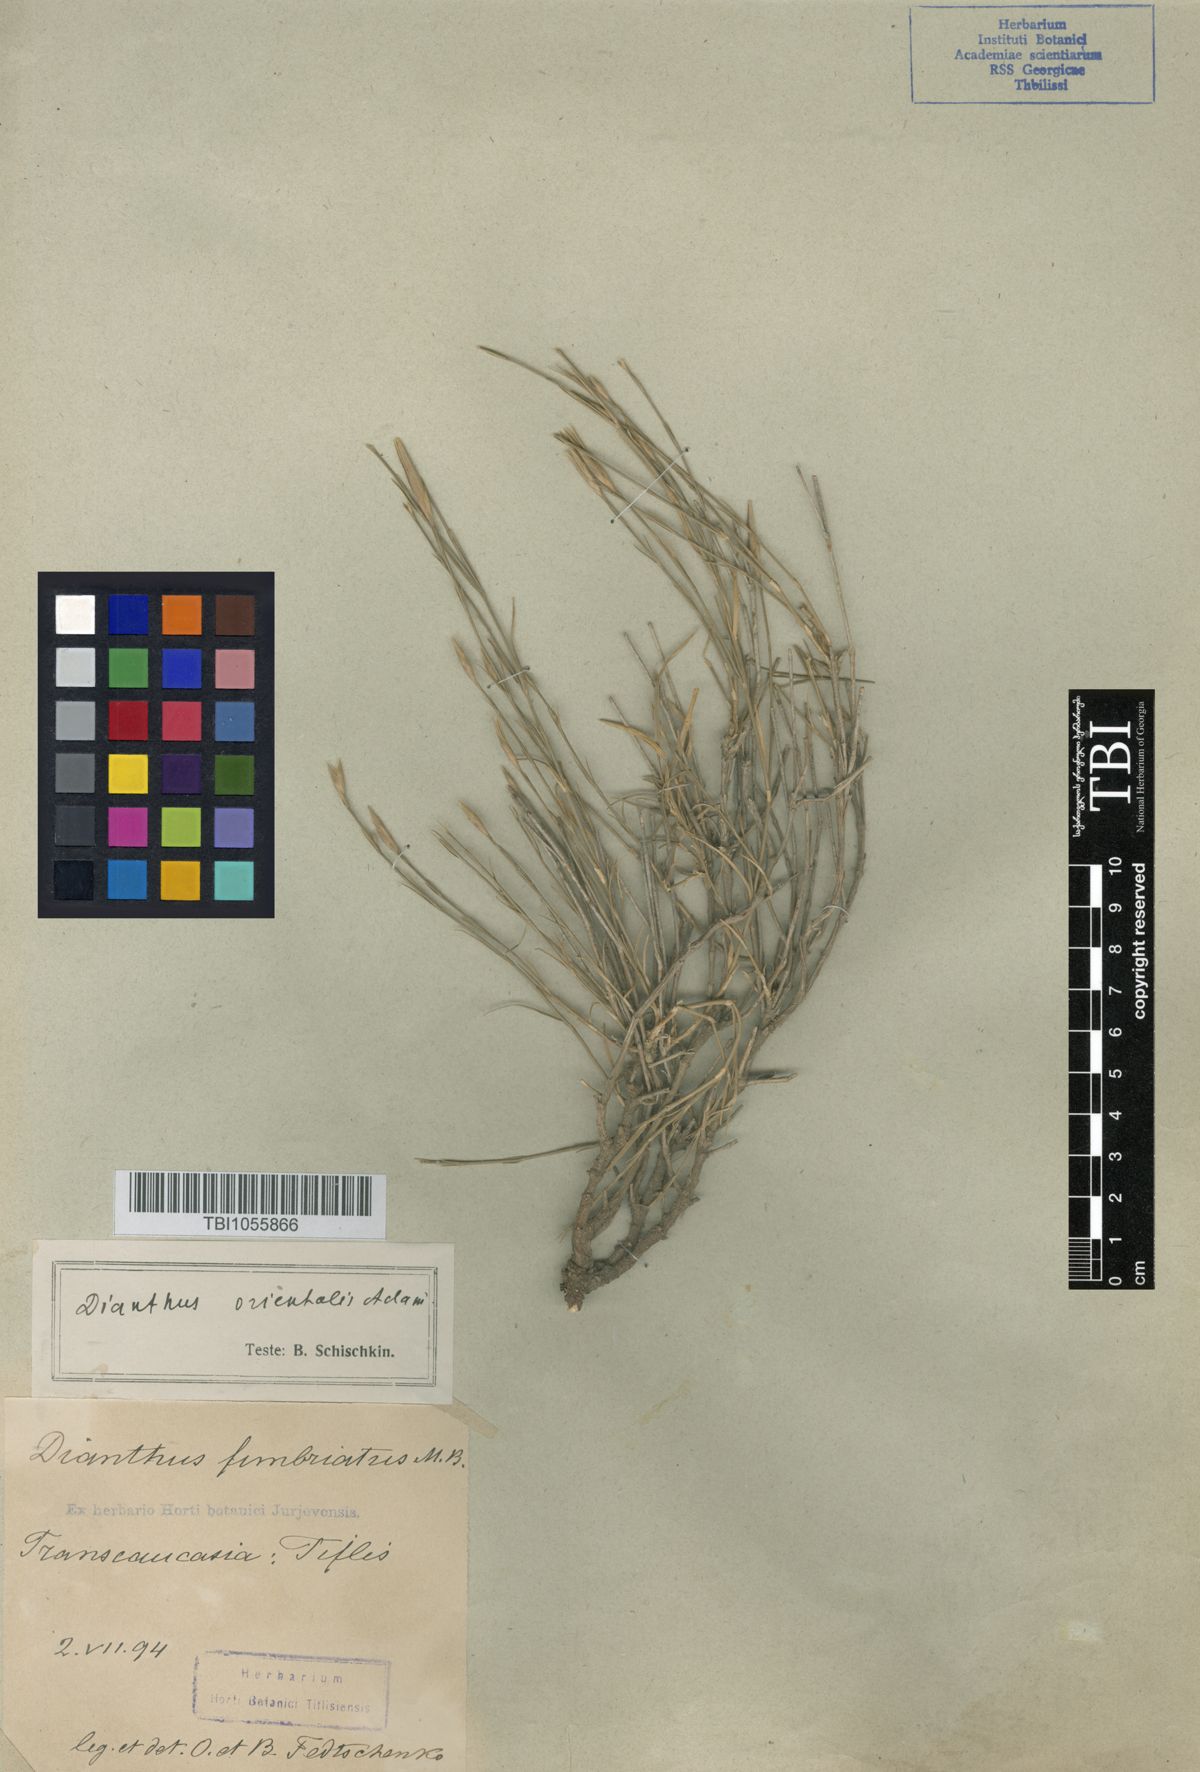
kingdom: Plantae
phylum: Tracheophyta
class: Magnoliopsida
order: Caryophyllales
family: Caryophyllaceae
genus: Dianthus
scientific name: Dianthus orientalis
